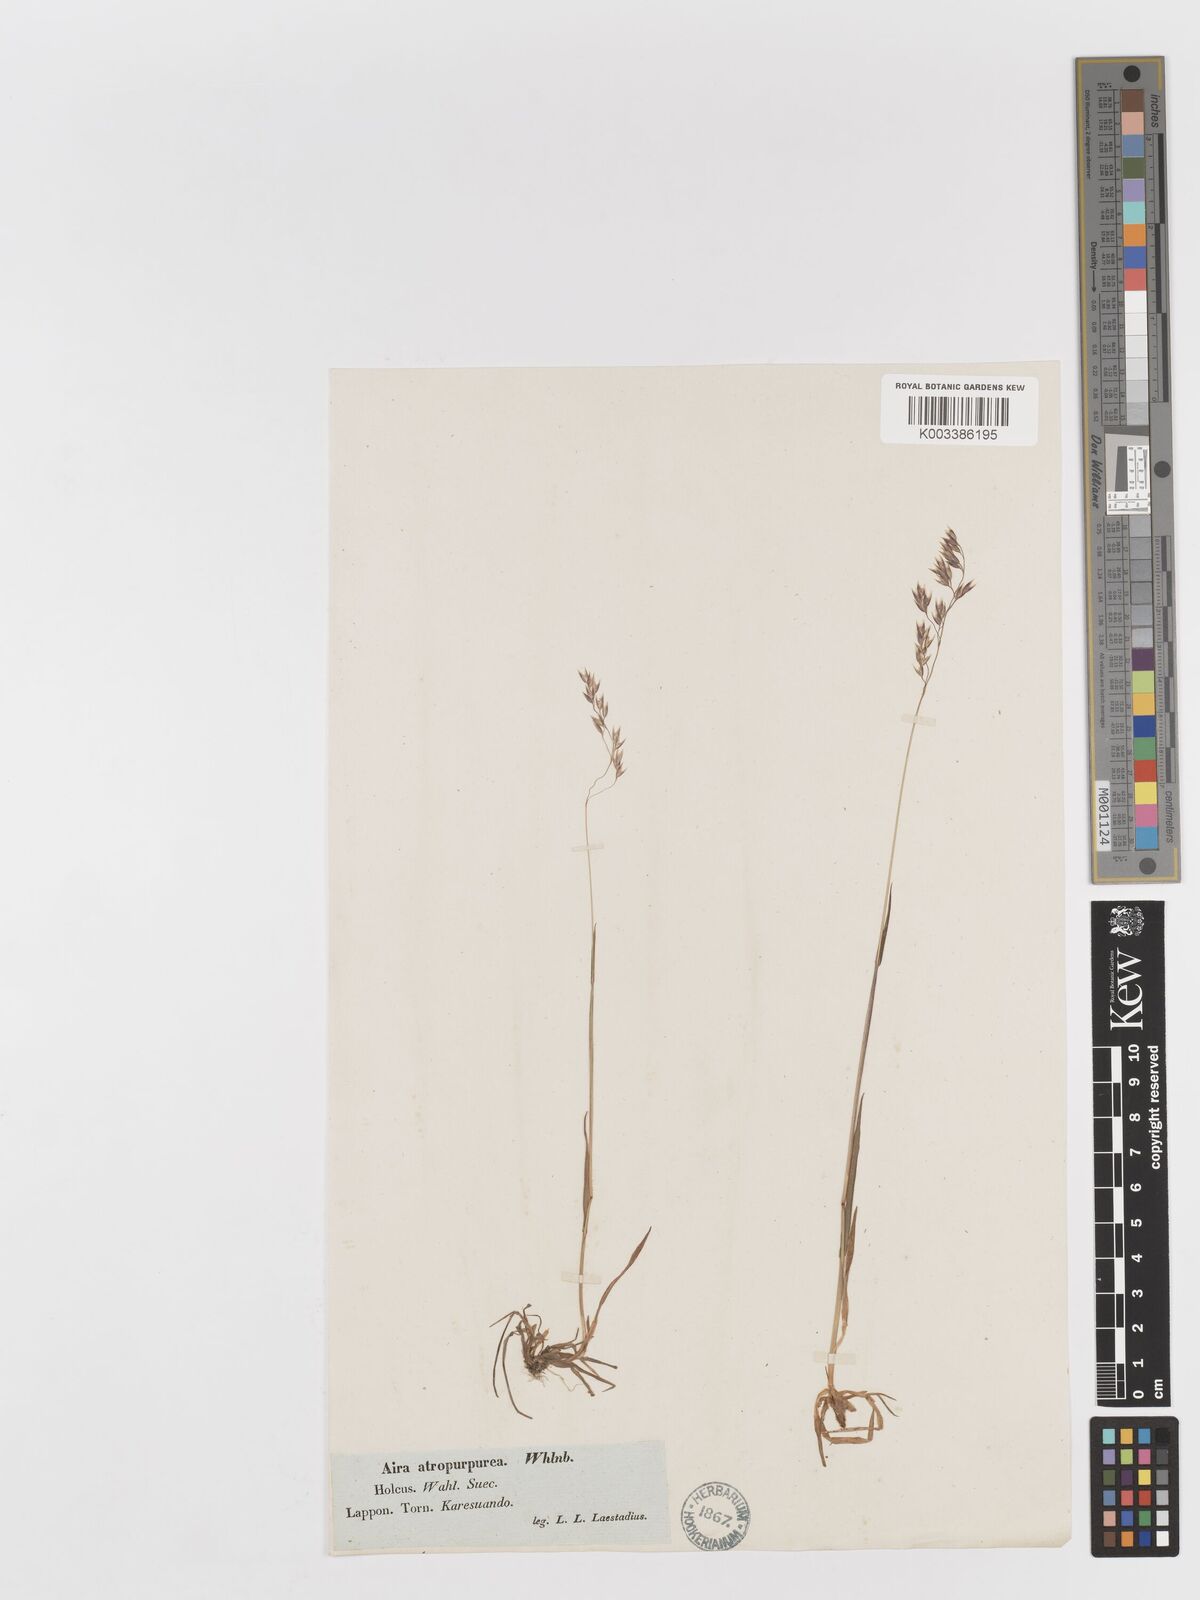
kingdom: Plantae
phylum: Tracheophyta
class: Liliopsida
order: Poales
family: Poaceae
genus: Vahlodea
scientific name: Vahlodea atropurpurea
